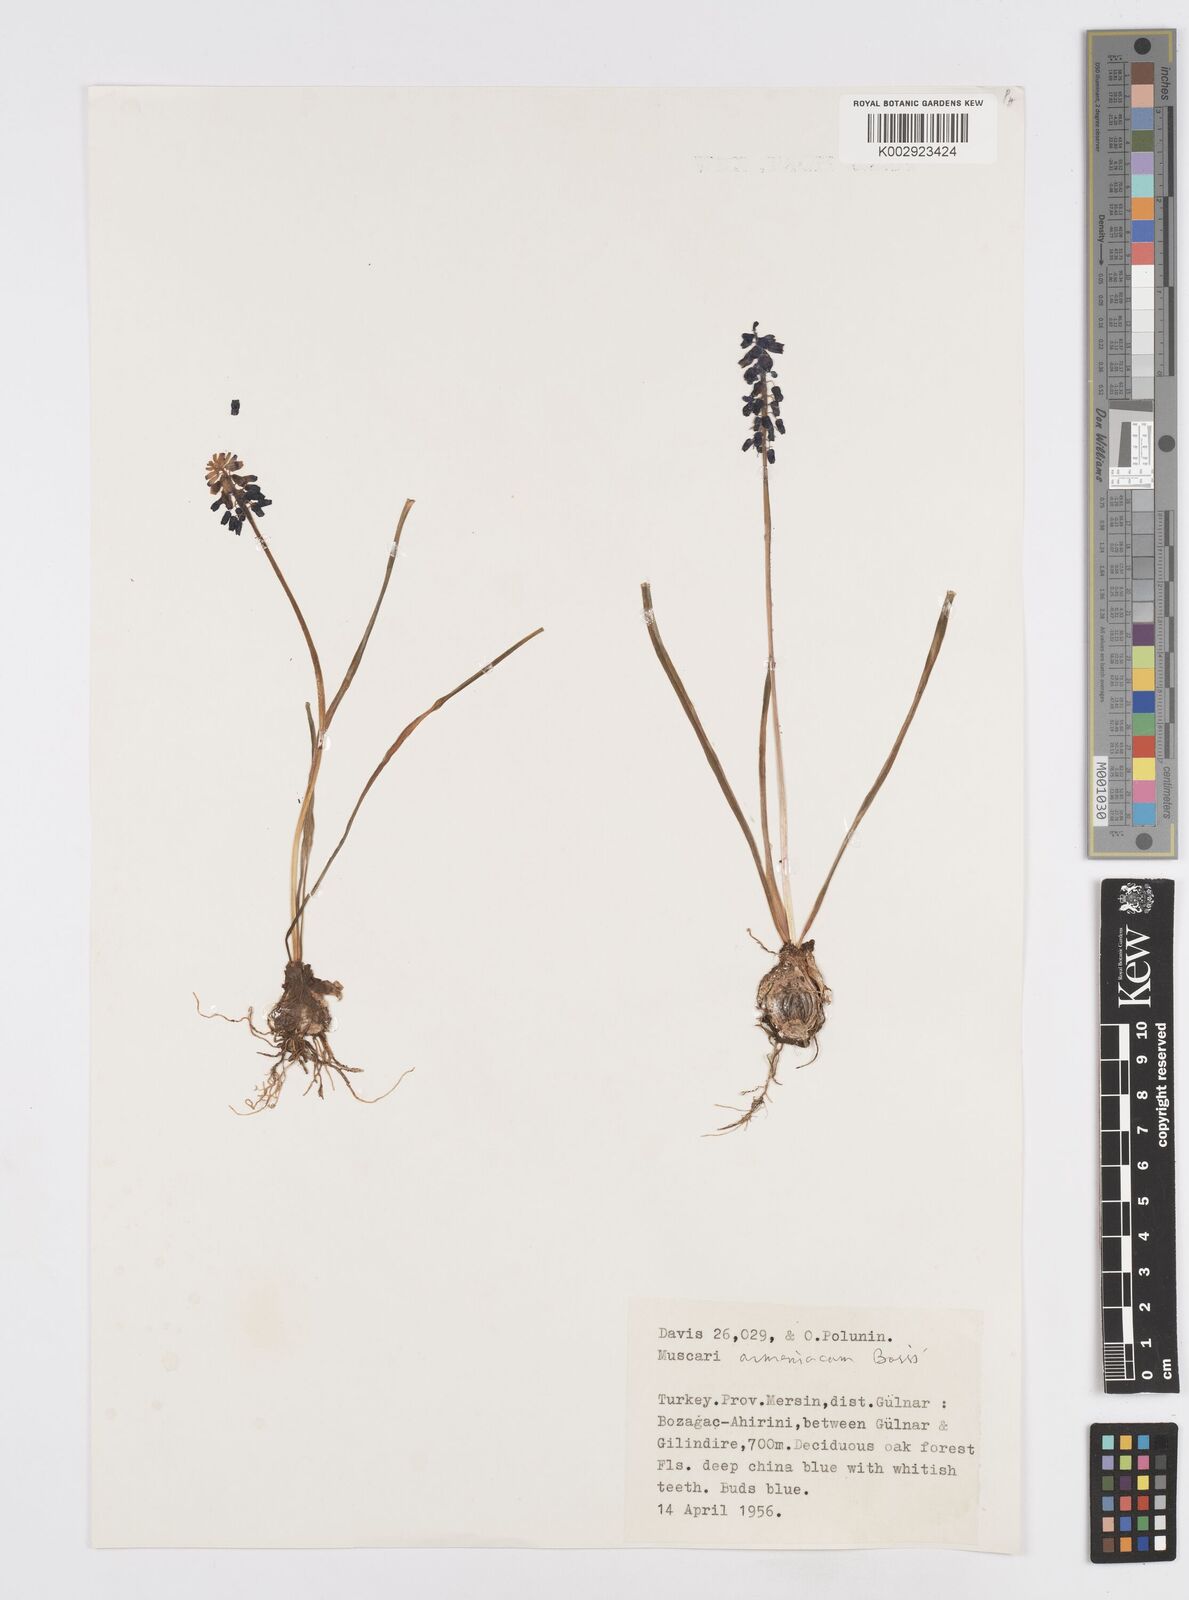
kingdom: Plantae
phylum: Tracheophyta
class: Liliopsida
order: Asparagales
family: Asparagaceae
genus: Muscari
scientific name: Muscari neglectum
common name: Grape-hyacinth
